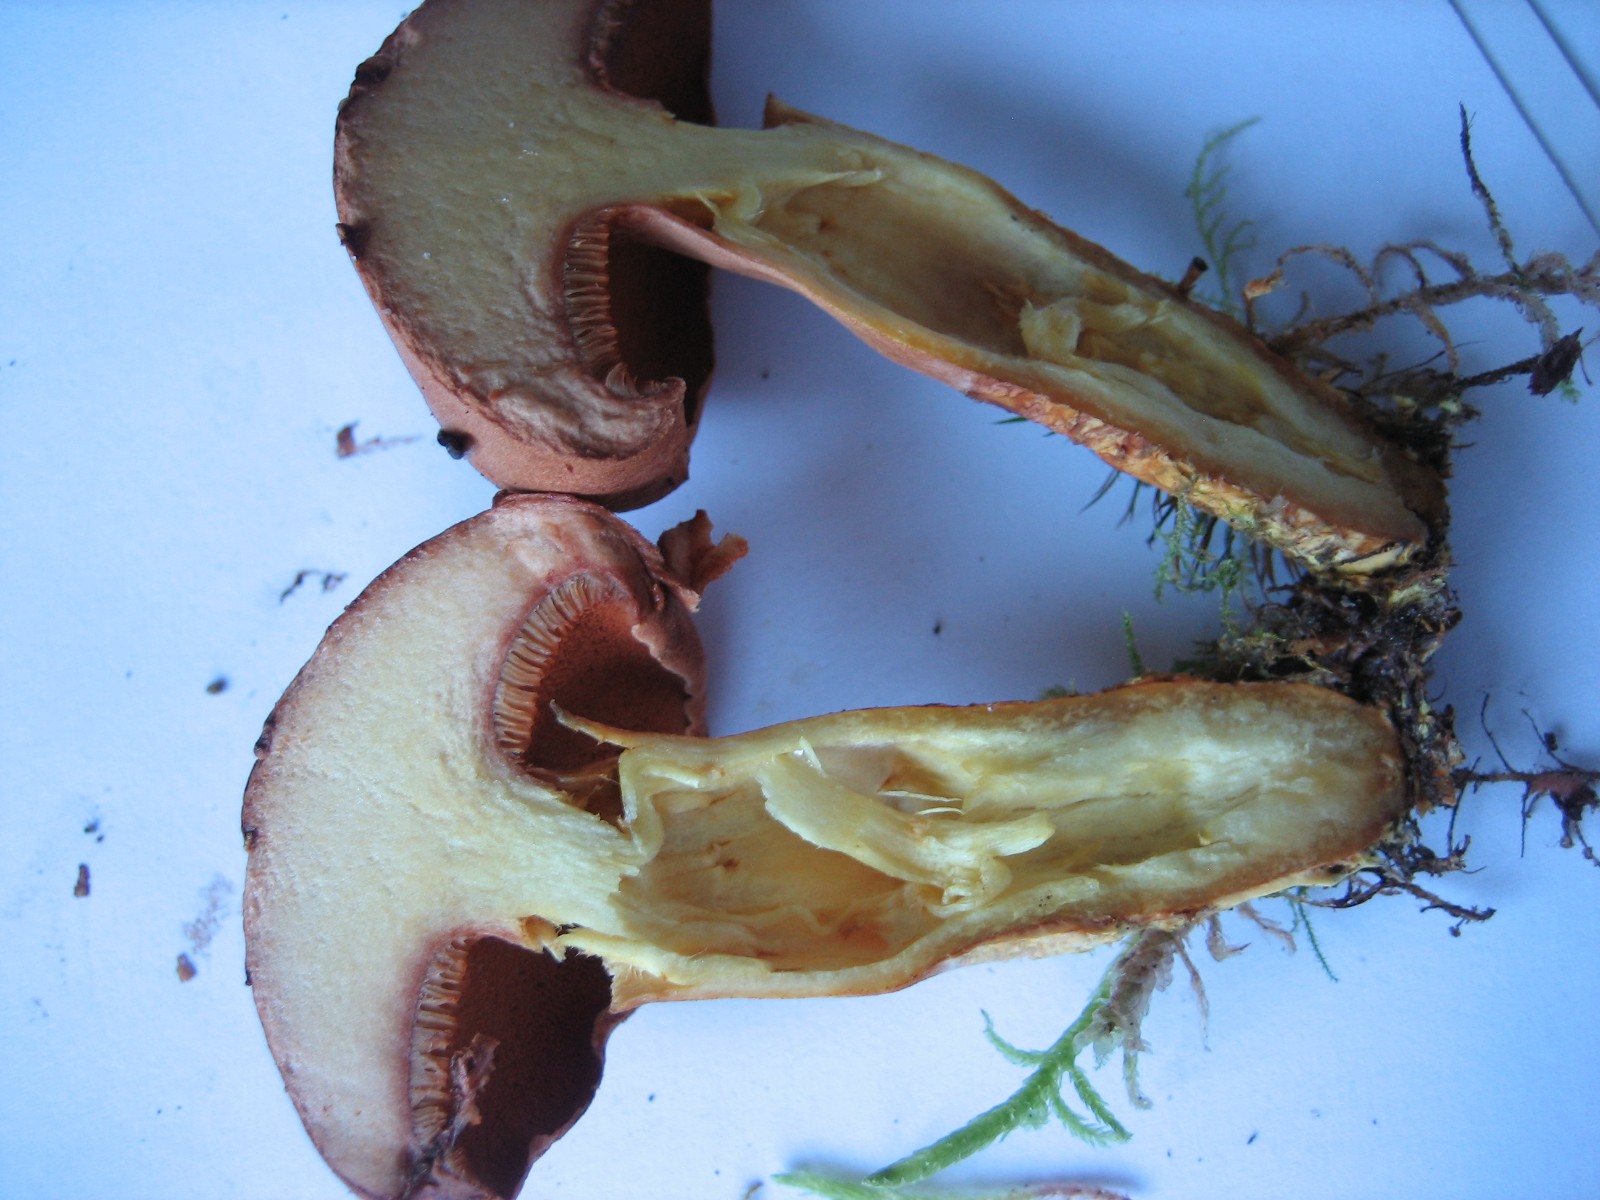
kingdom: Fungi
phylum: Basidiomycota
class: Agaricomycetes
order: Boletales
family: Boletaceae
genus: Chalciporus
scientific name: Chalciporus piperatus
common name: peberrørhat
